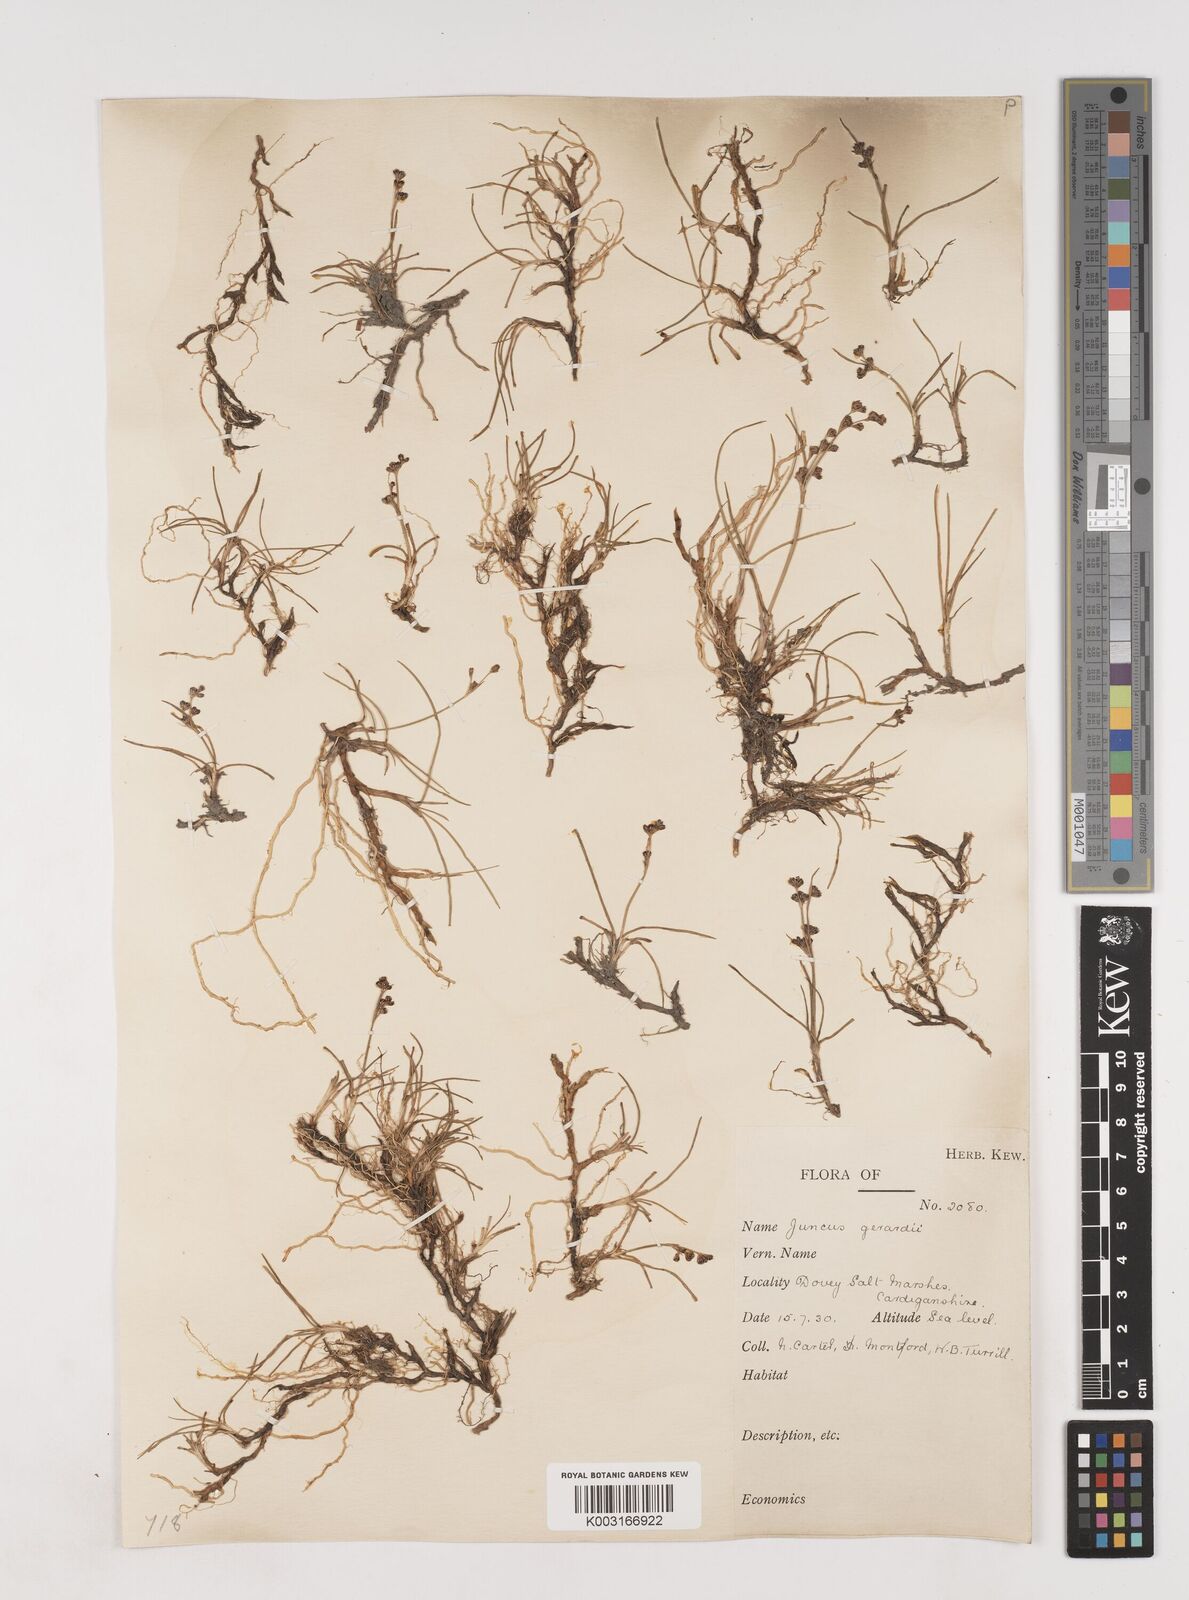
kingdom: Plantae
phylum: Tracheophyta
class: Liliopsida
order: Poales
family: Juncaceae
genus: Juncus
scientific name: Juncus gerardi
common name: Saltmarsh rush
